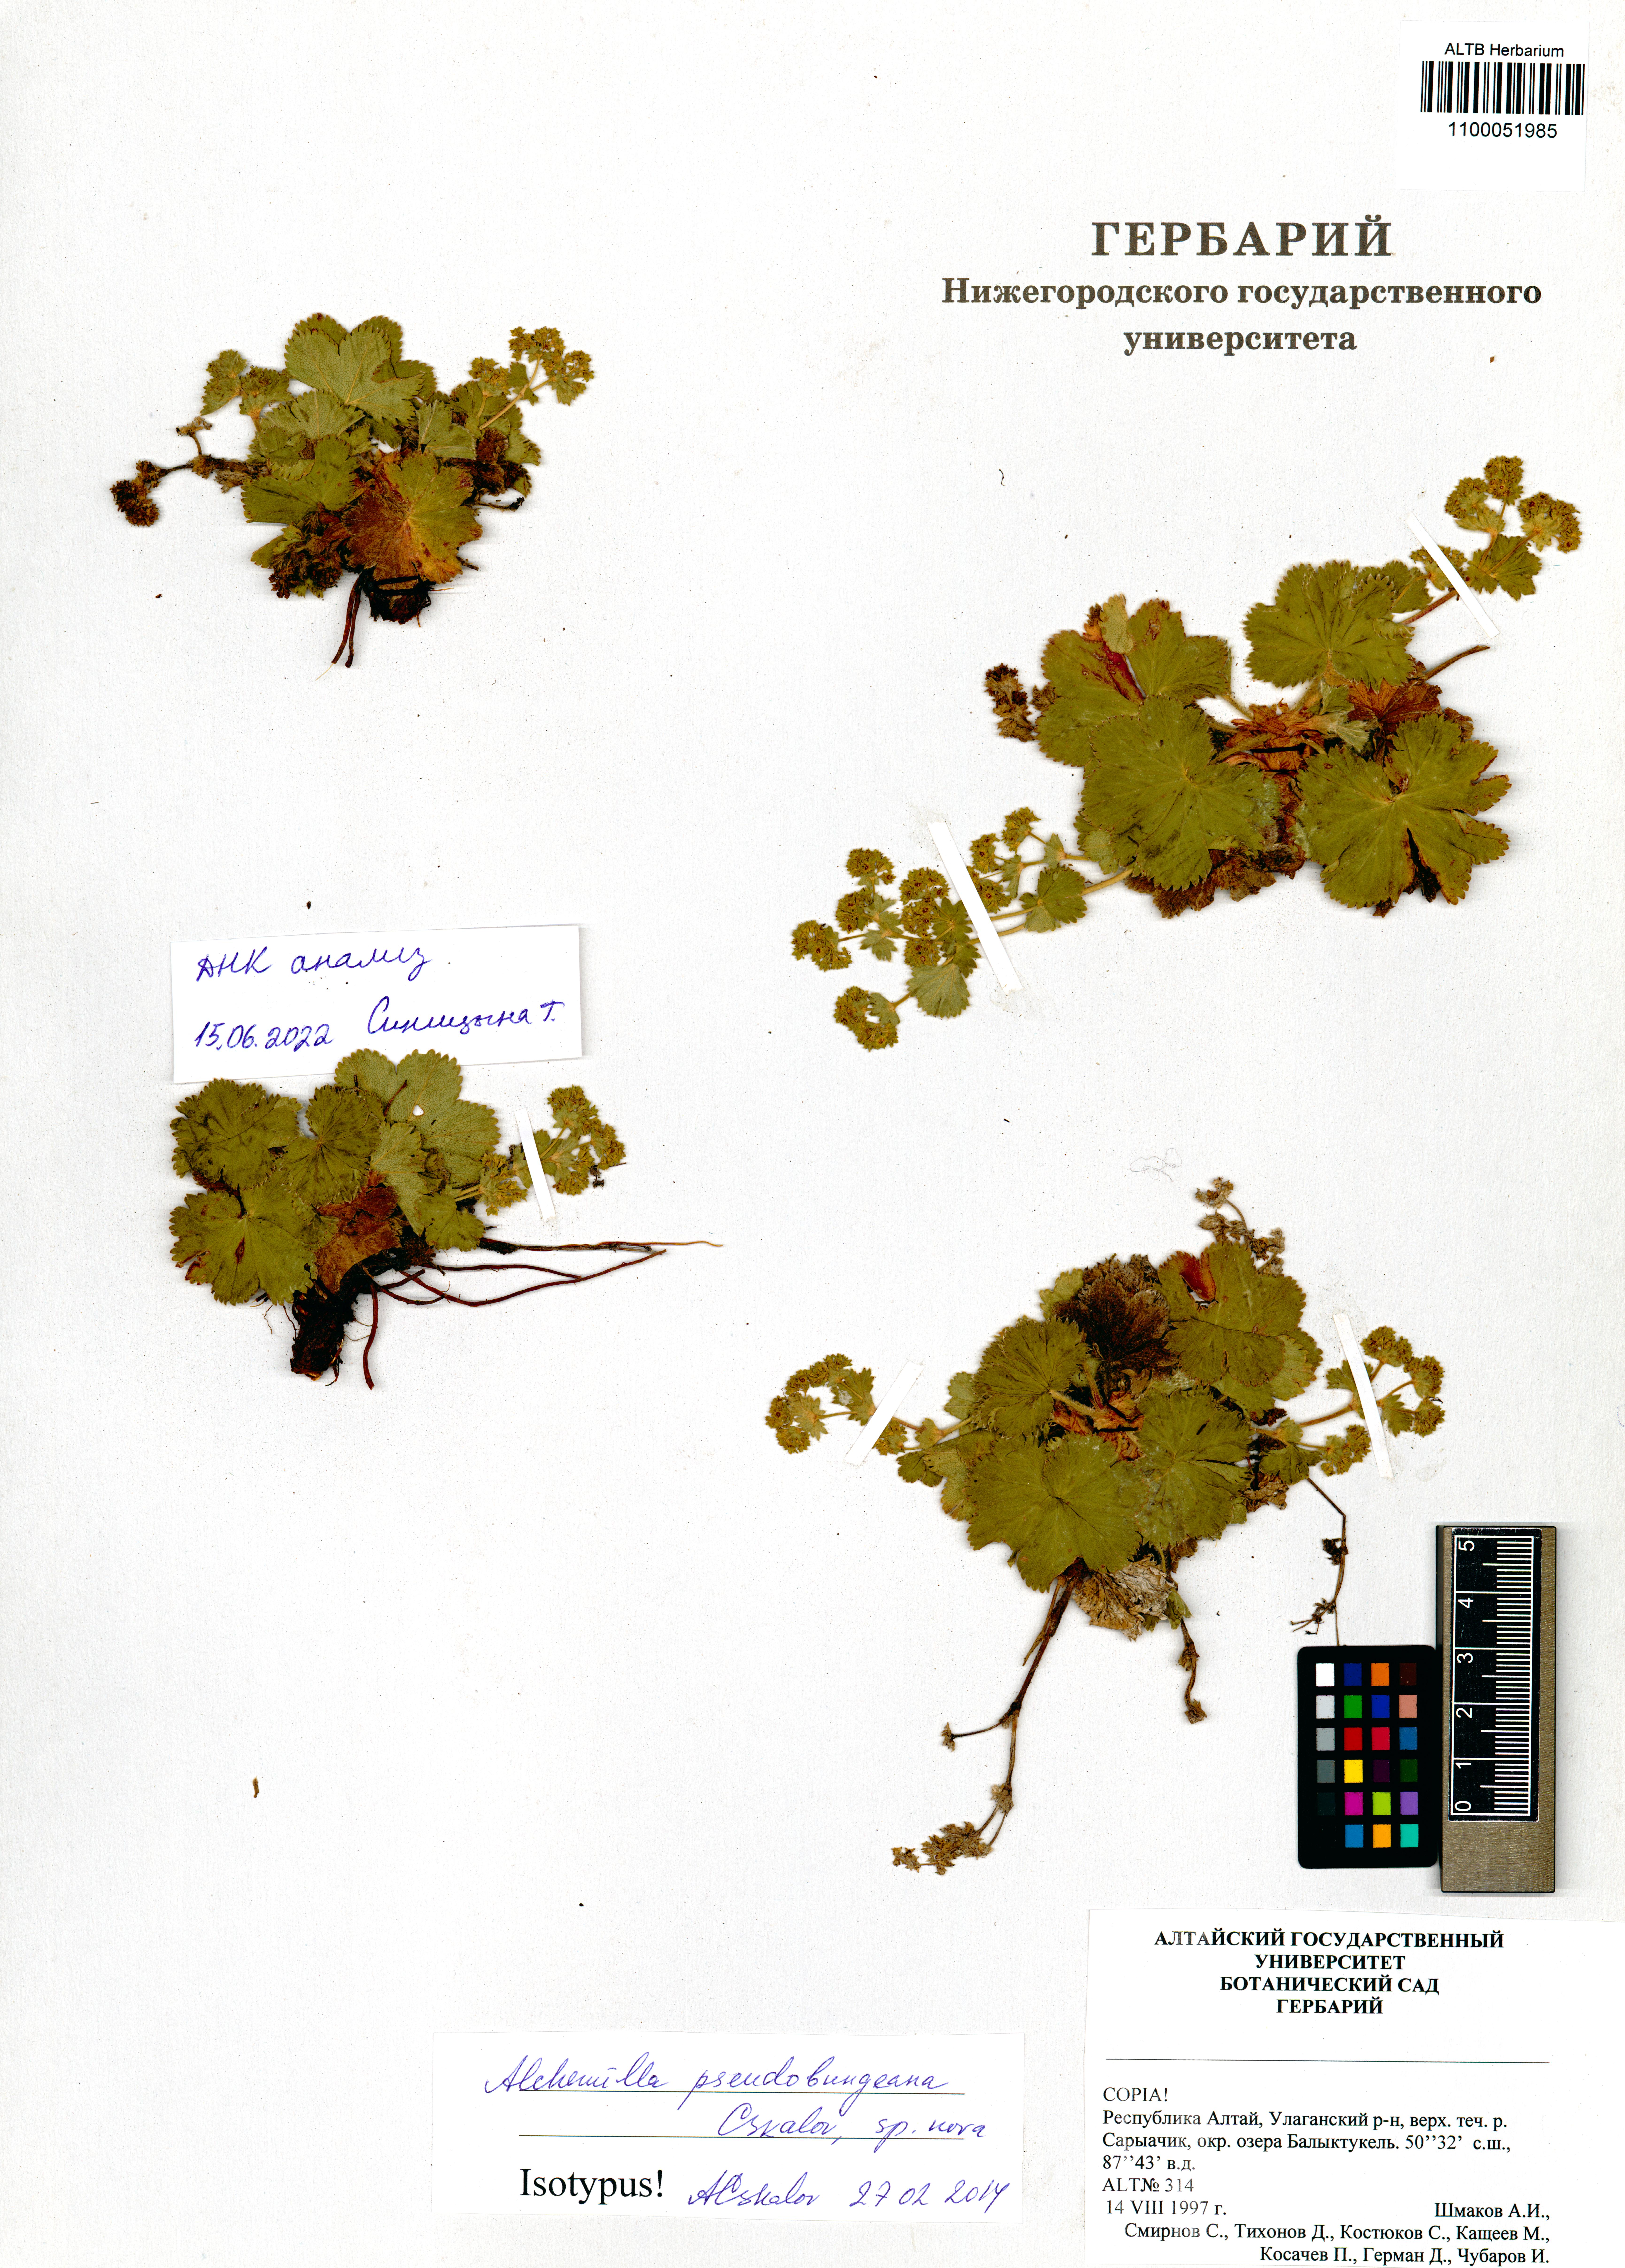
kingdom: Plantae
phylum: Tracheophyta
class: Magnoliopsida
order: Rosales
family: Rosaceae
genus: Alchemilla
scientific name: Alchemilla pseudobungeana
